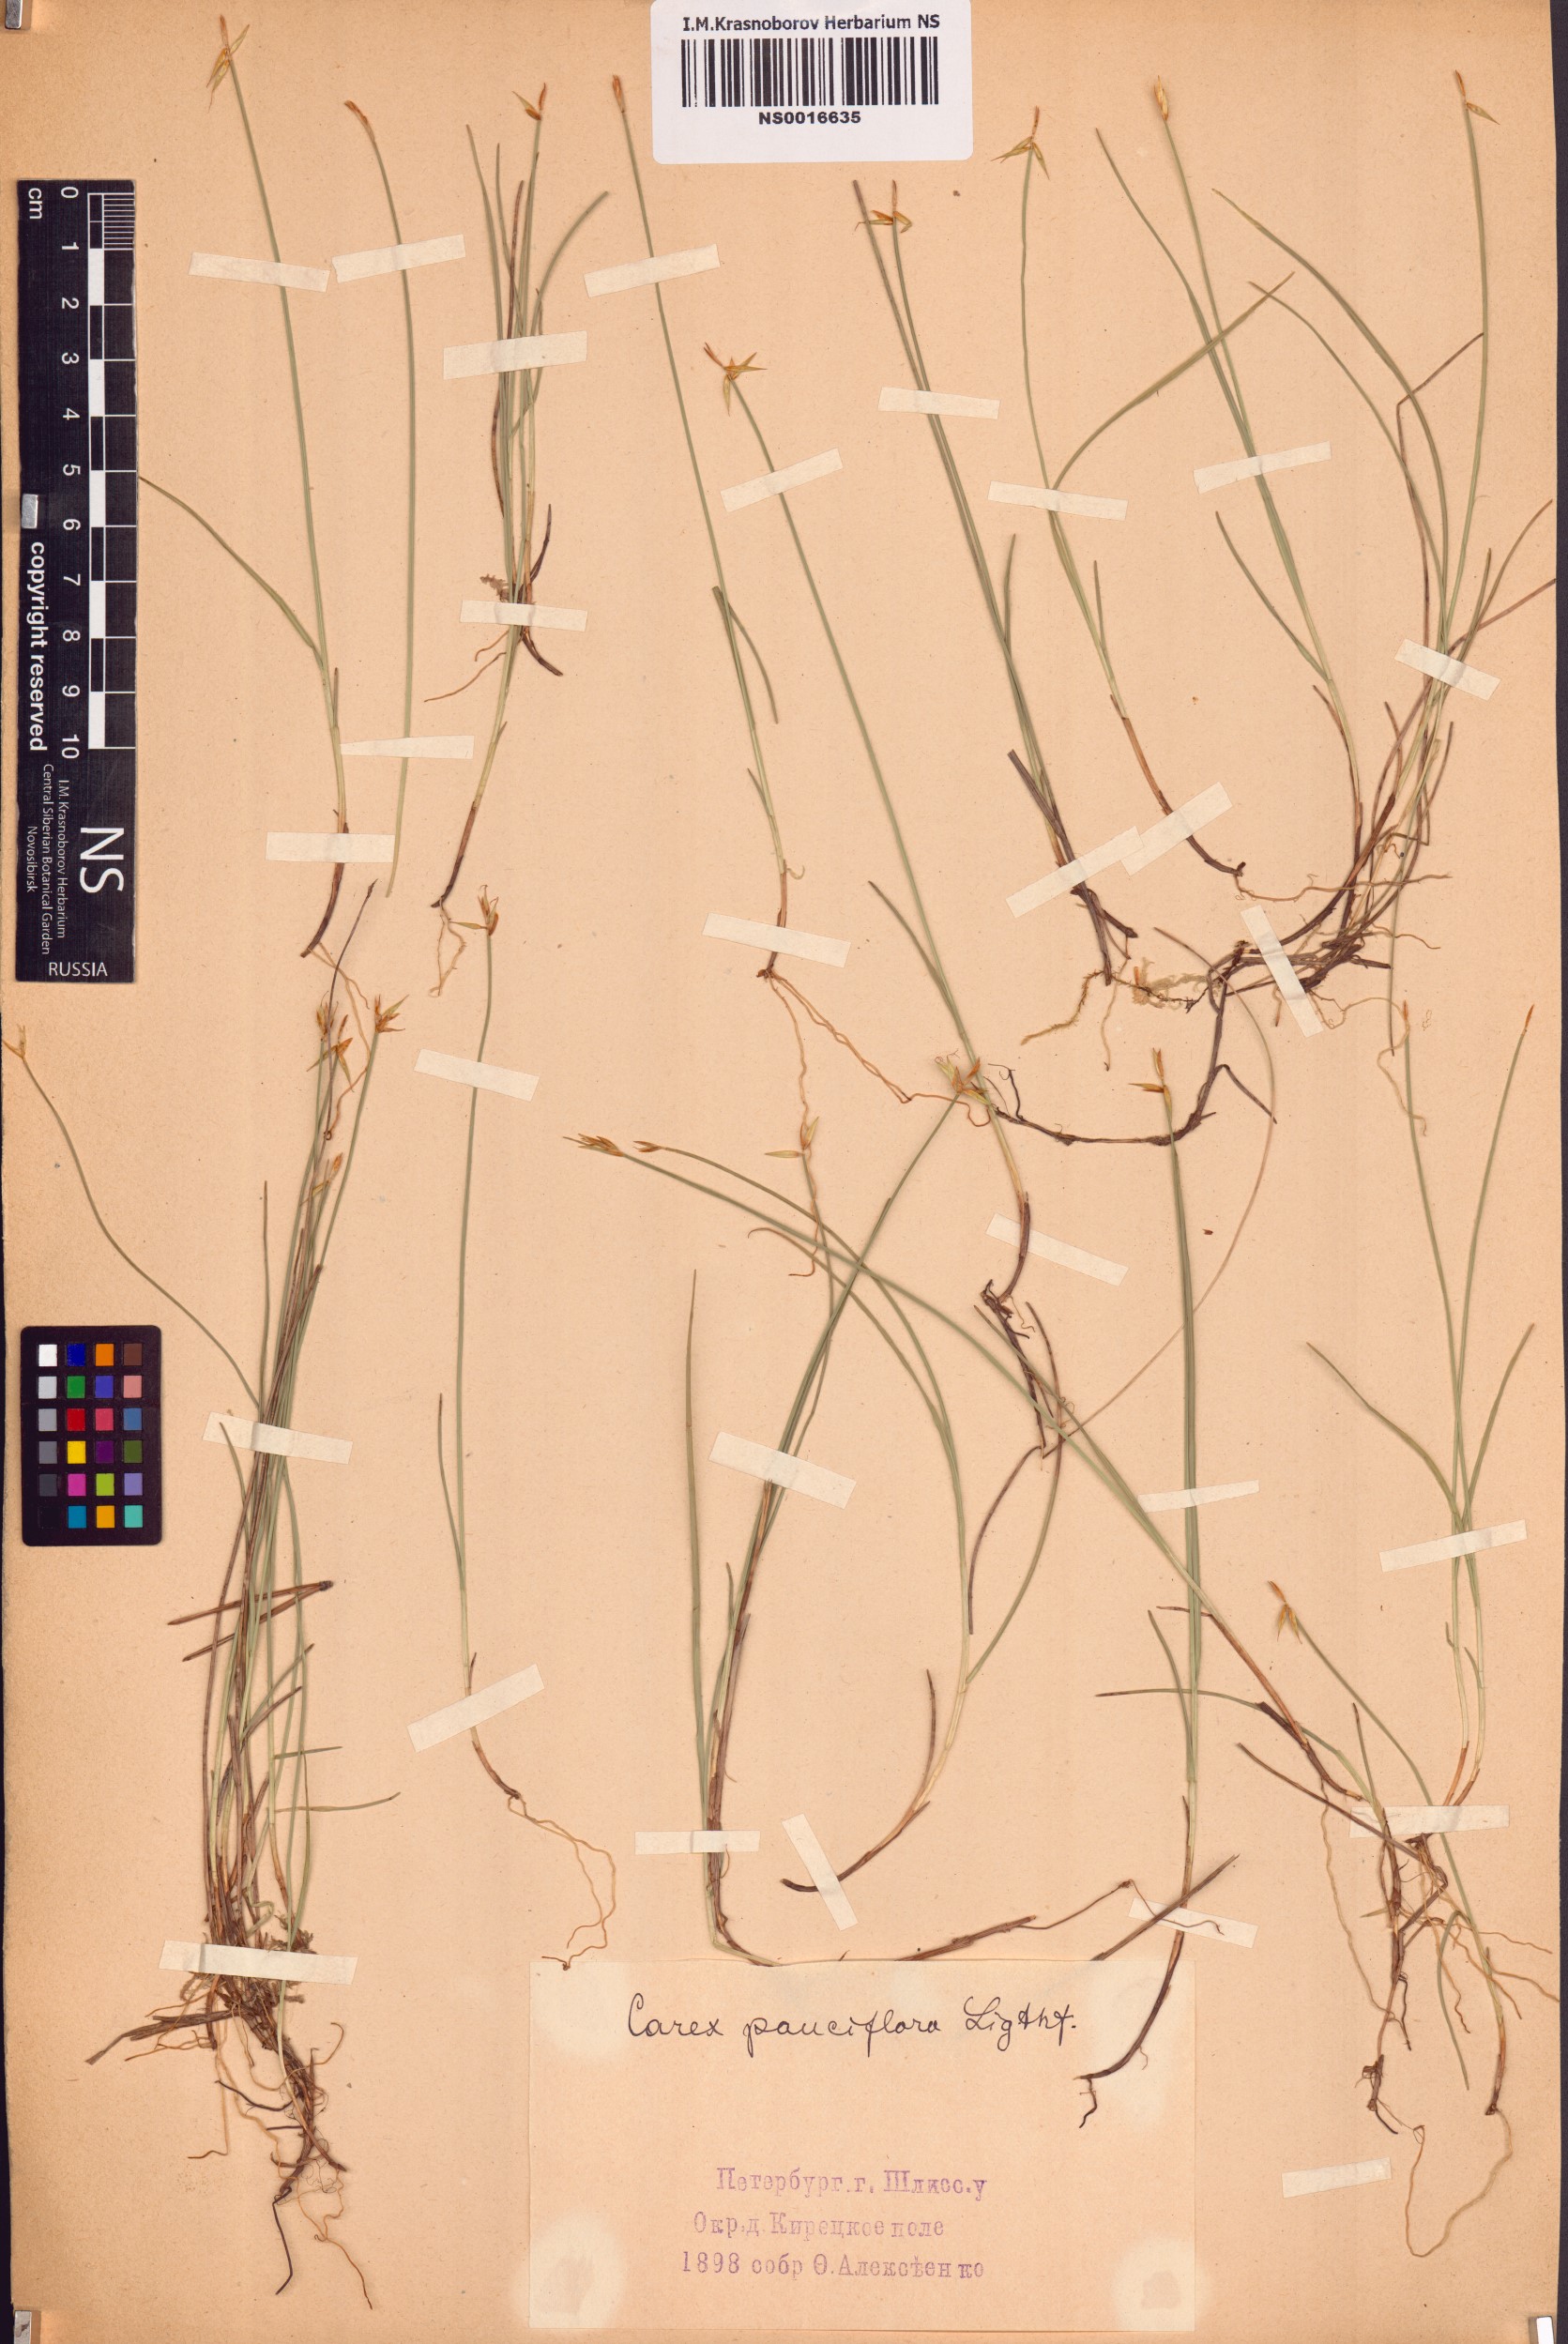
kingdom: Plantae
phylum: Tracheophyta
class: Liliopsida
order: Poales
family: Cyperaceae
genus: Carex
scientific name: Carex pauciflora
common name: Few-flowered sedge
